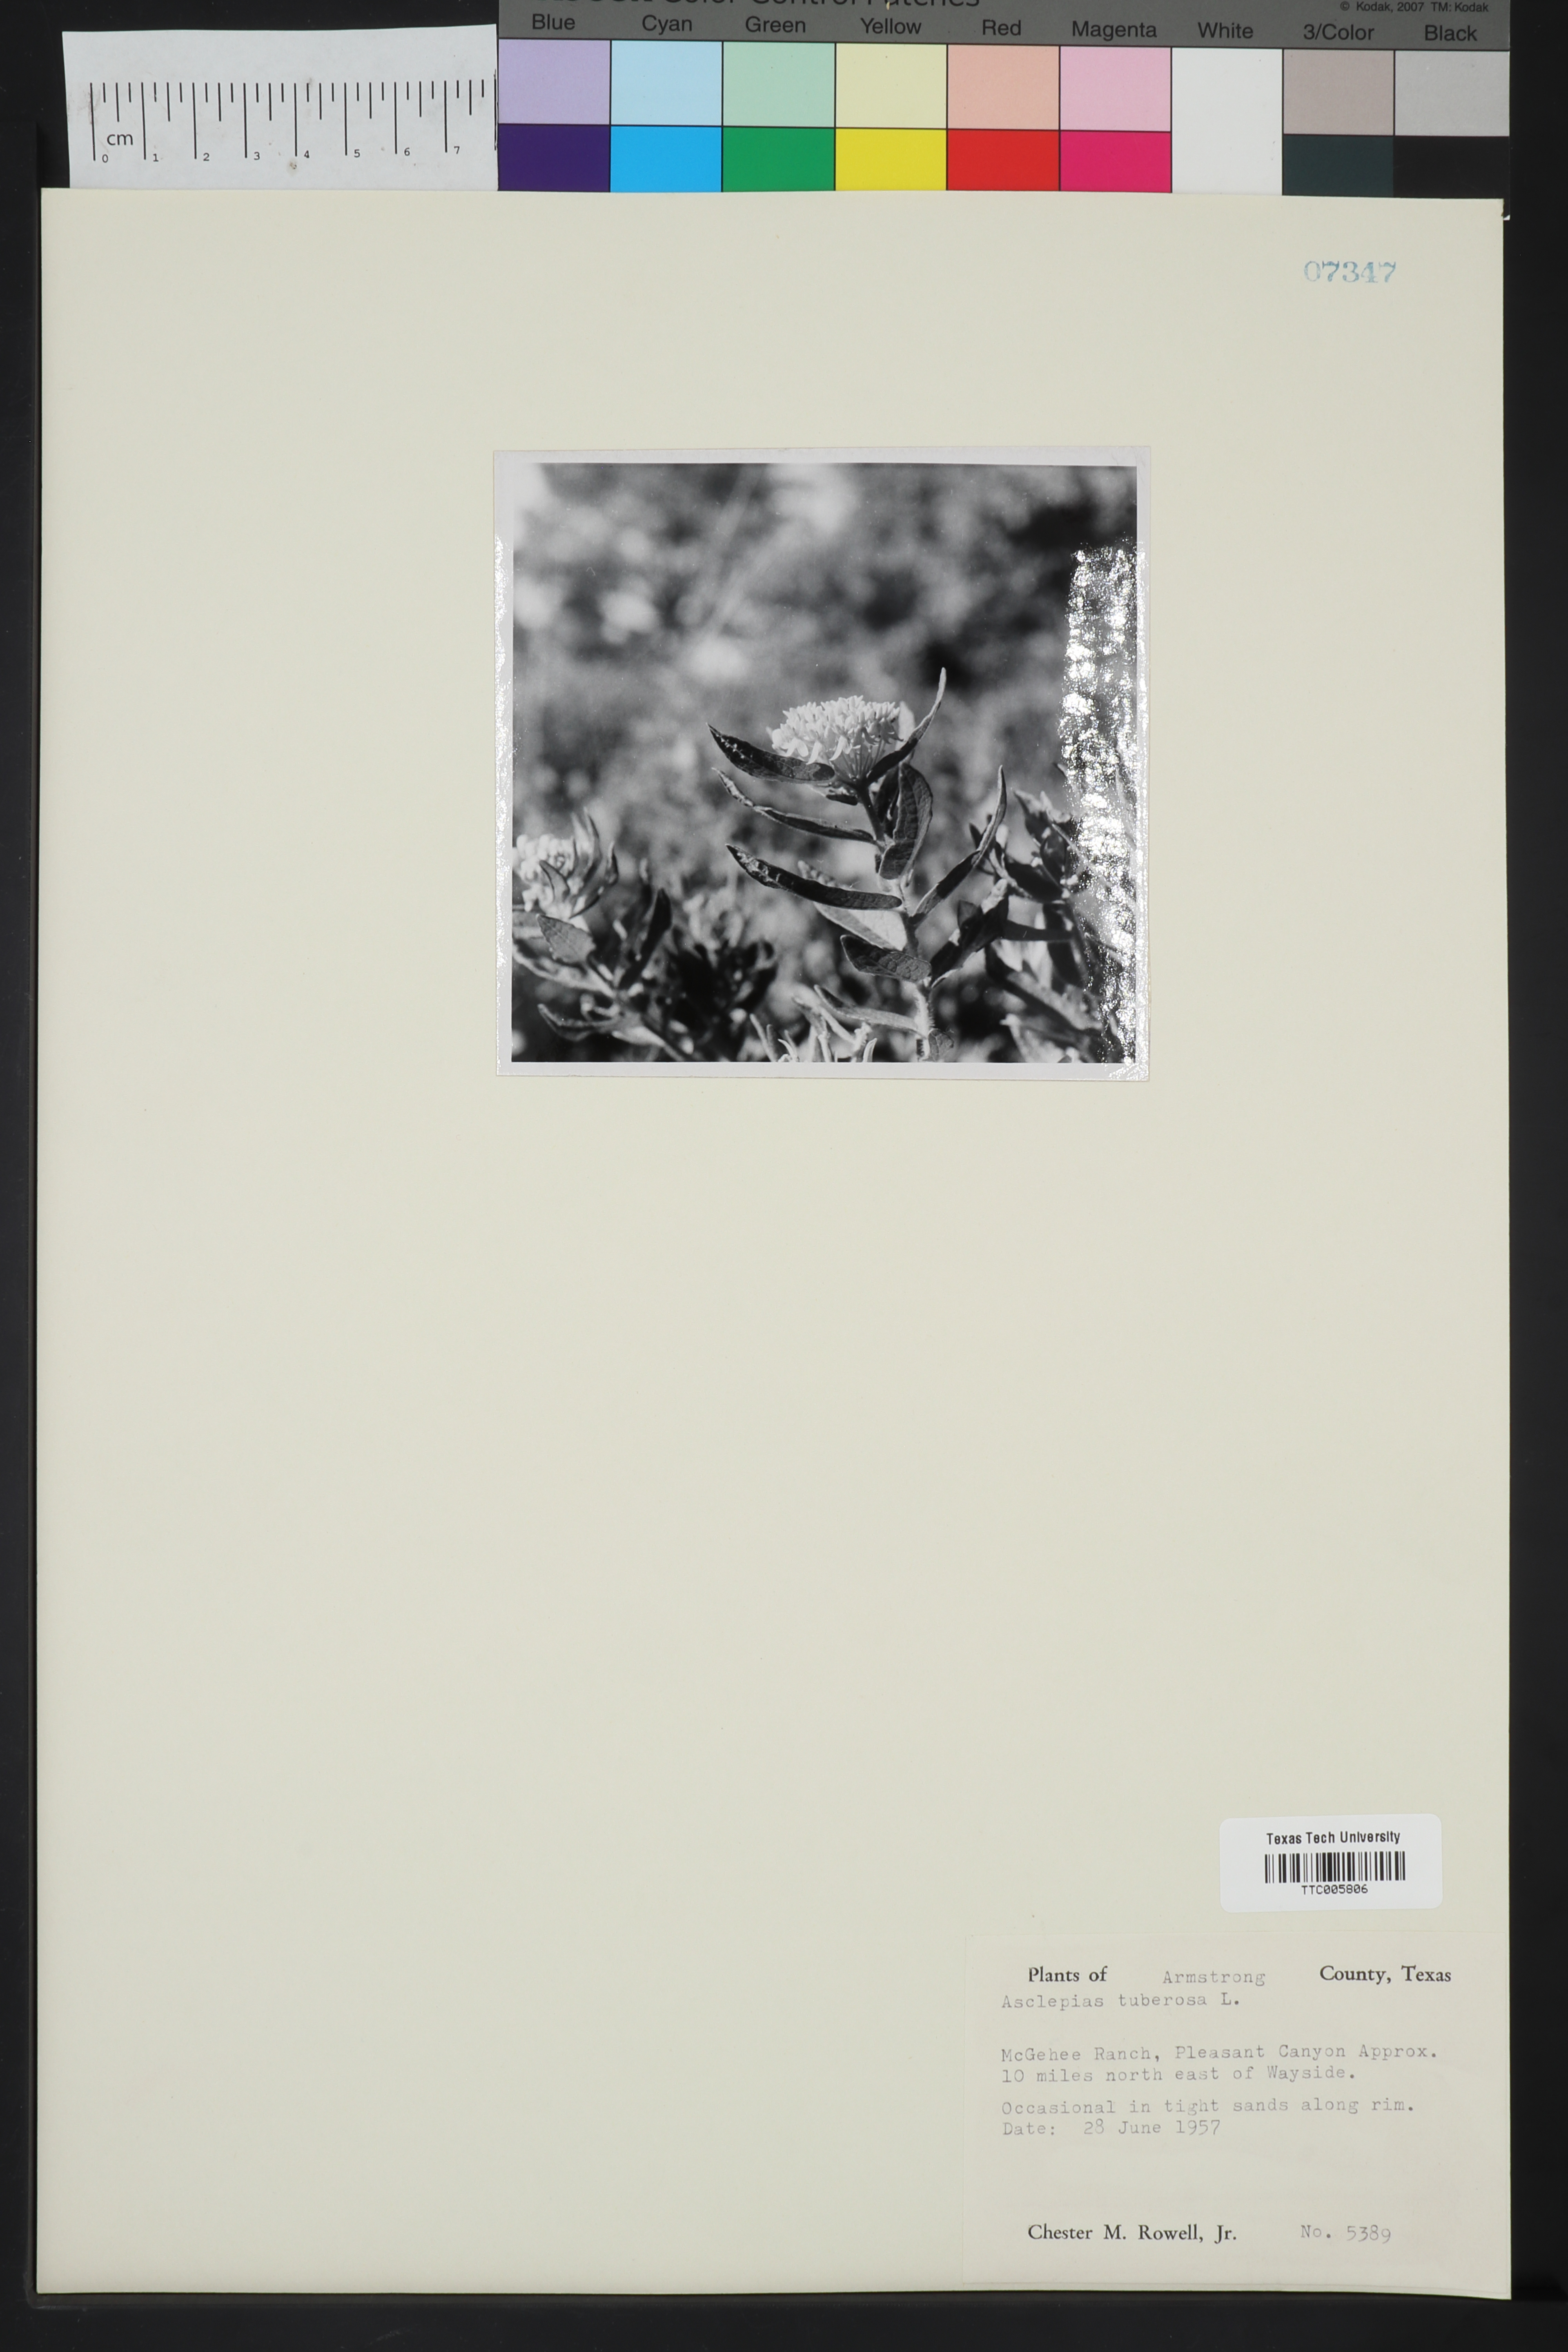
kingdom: Plantae
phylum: Tracheophyta
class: Magnoliopsida
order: Gentianales
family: Apocynaceae
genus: Asclepias
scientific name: Asclepias tuberosa
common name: Butterfly milkweed
